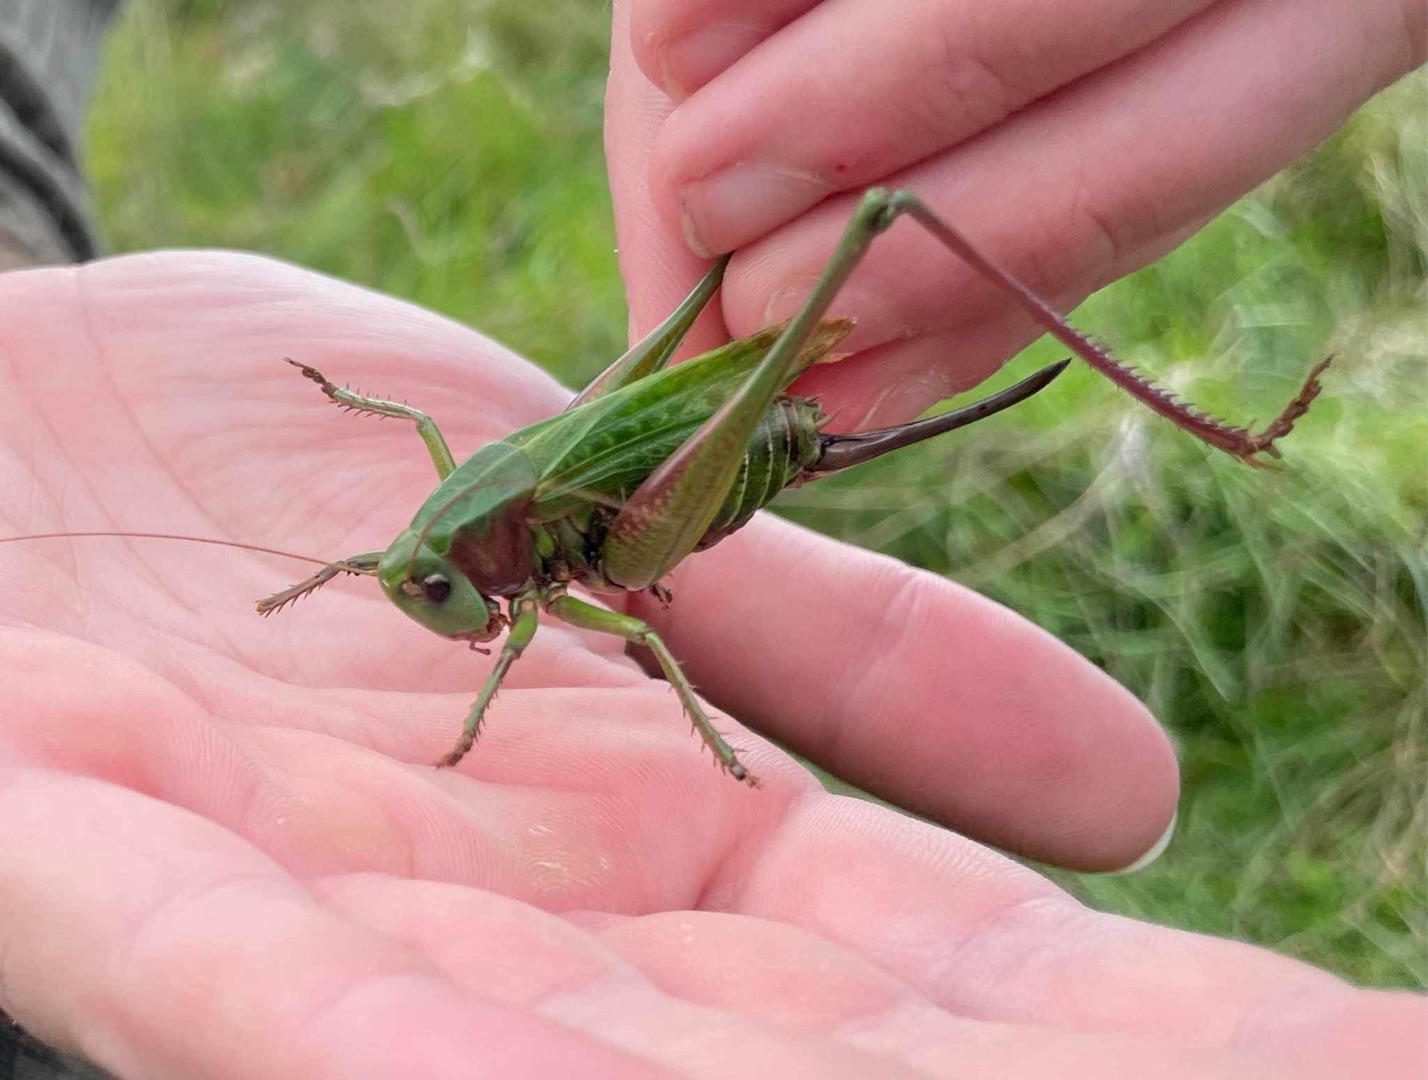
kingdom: Animalia
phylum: Arthropoda
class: Insecta
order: Orthoptera
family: Tettigoniidae
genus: Decticus
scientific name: Decticus verrucivorus
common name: Vortebider
